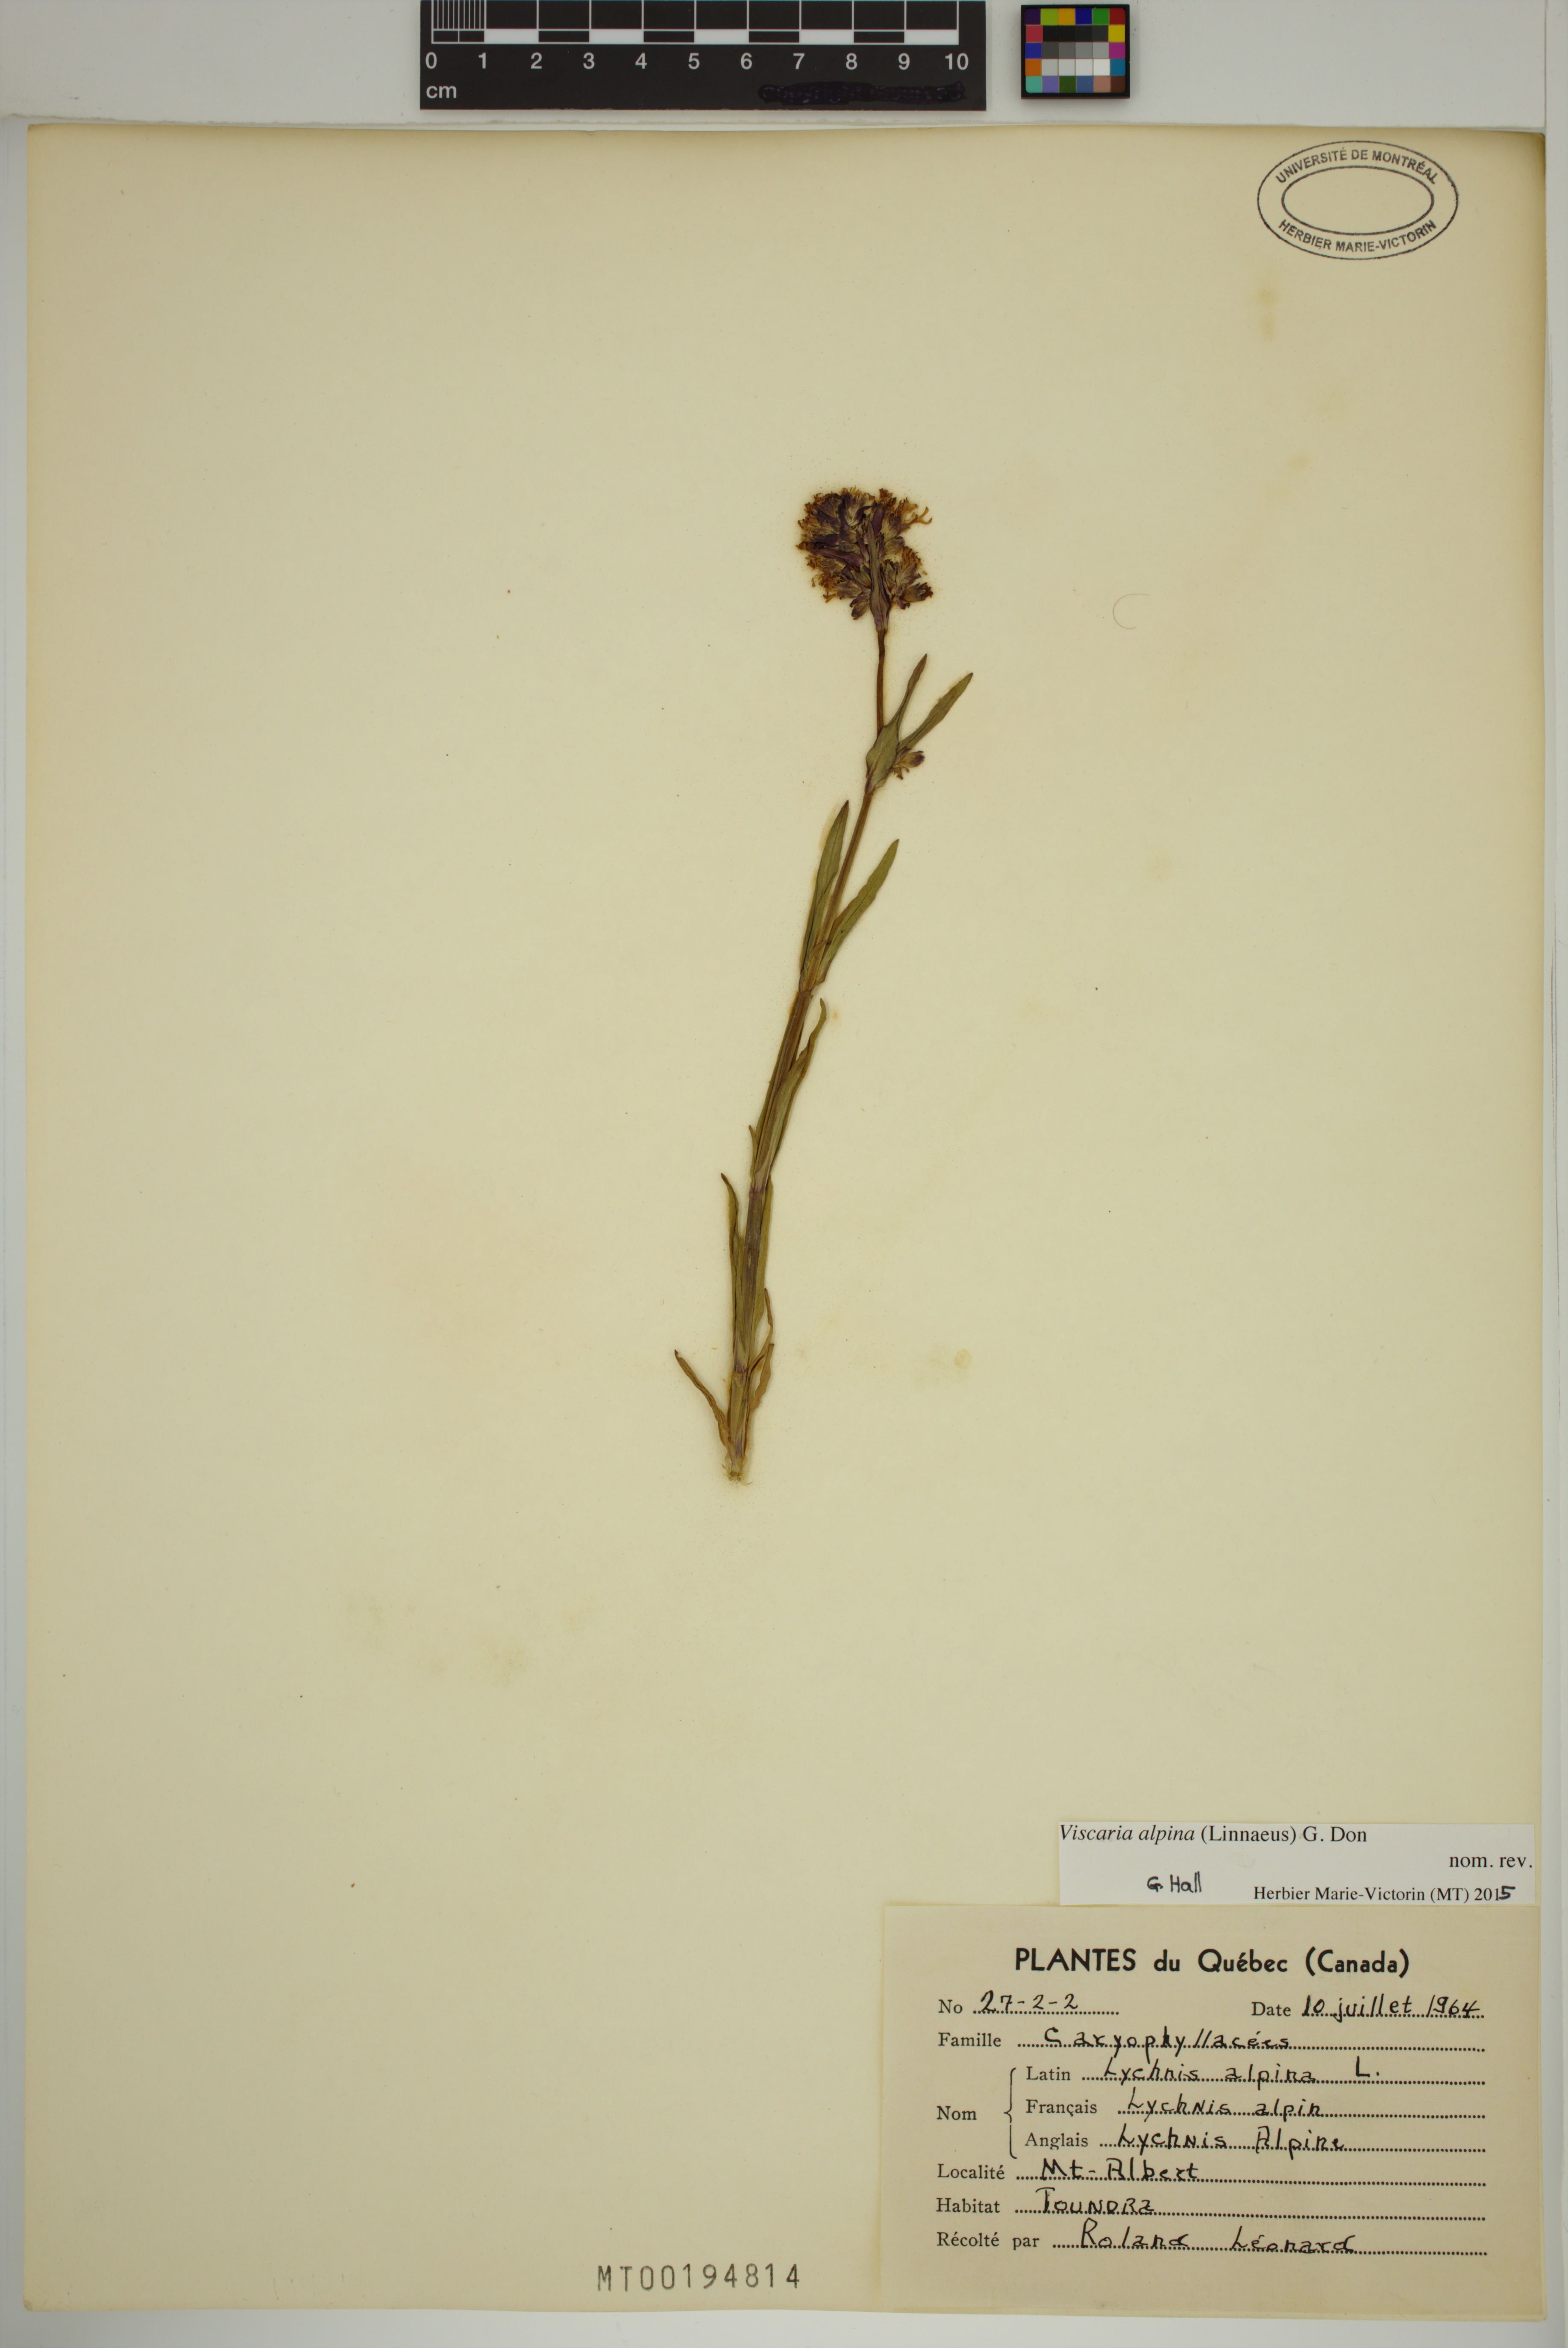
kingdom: Plantae
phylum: Tracheophyta
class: Magnoliopsida
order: Caryophyllales
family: Caryophyllaceae
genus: Viscaria
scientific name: Viscaria alpina
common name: Alpine campion
